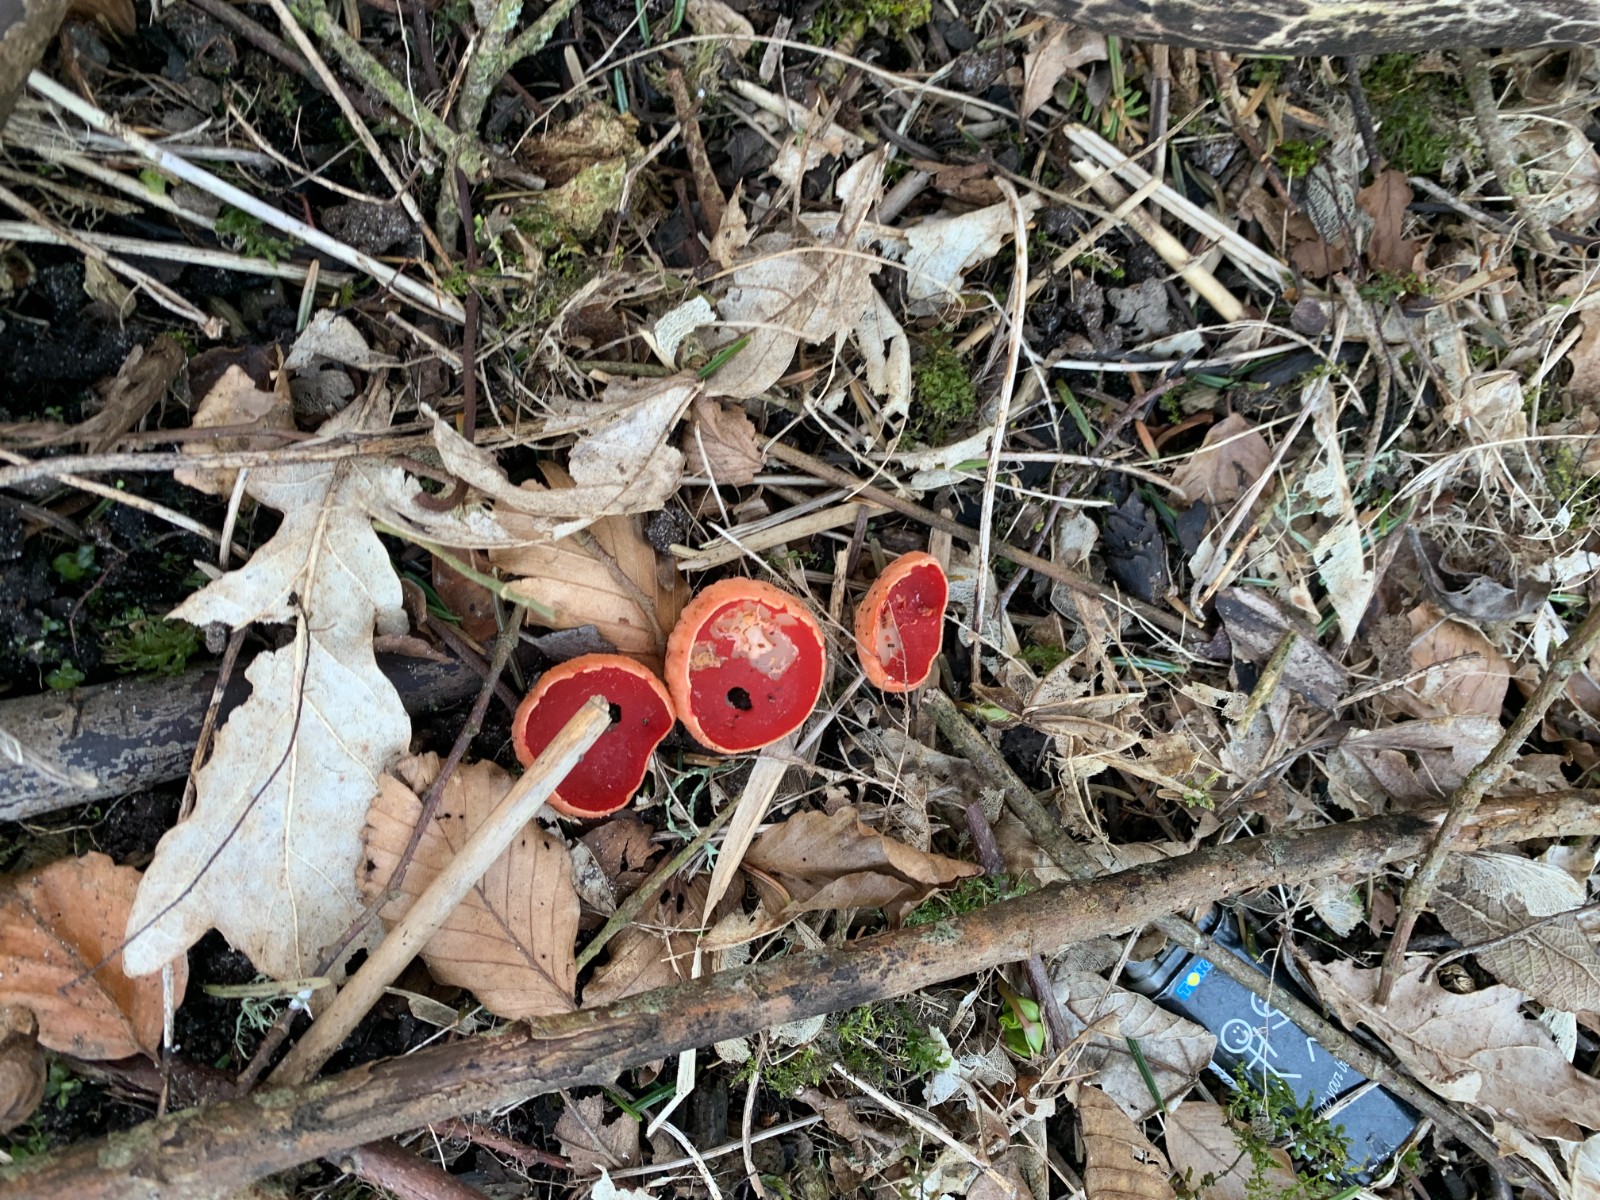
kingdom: Fungi
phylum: Ascomycota
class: Pezizomycetes
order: Pezizales
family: Sarcoscyphaceae
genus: Sarcoscypha
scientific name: Sarcoscypha austriaca
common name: krølhåret pragtbæger
